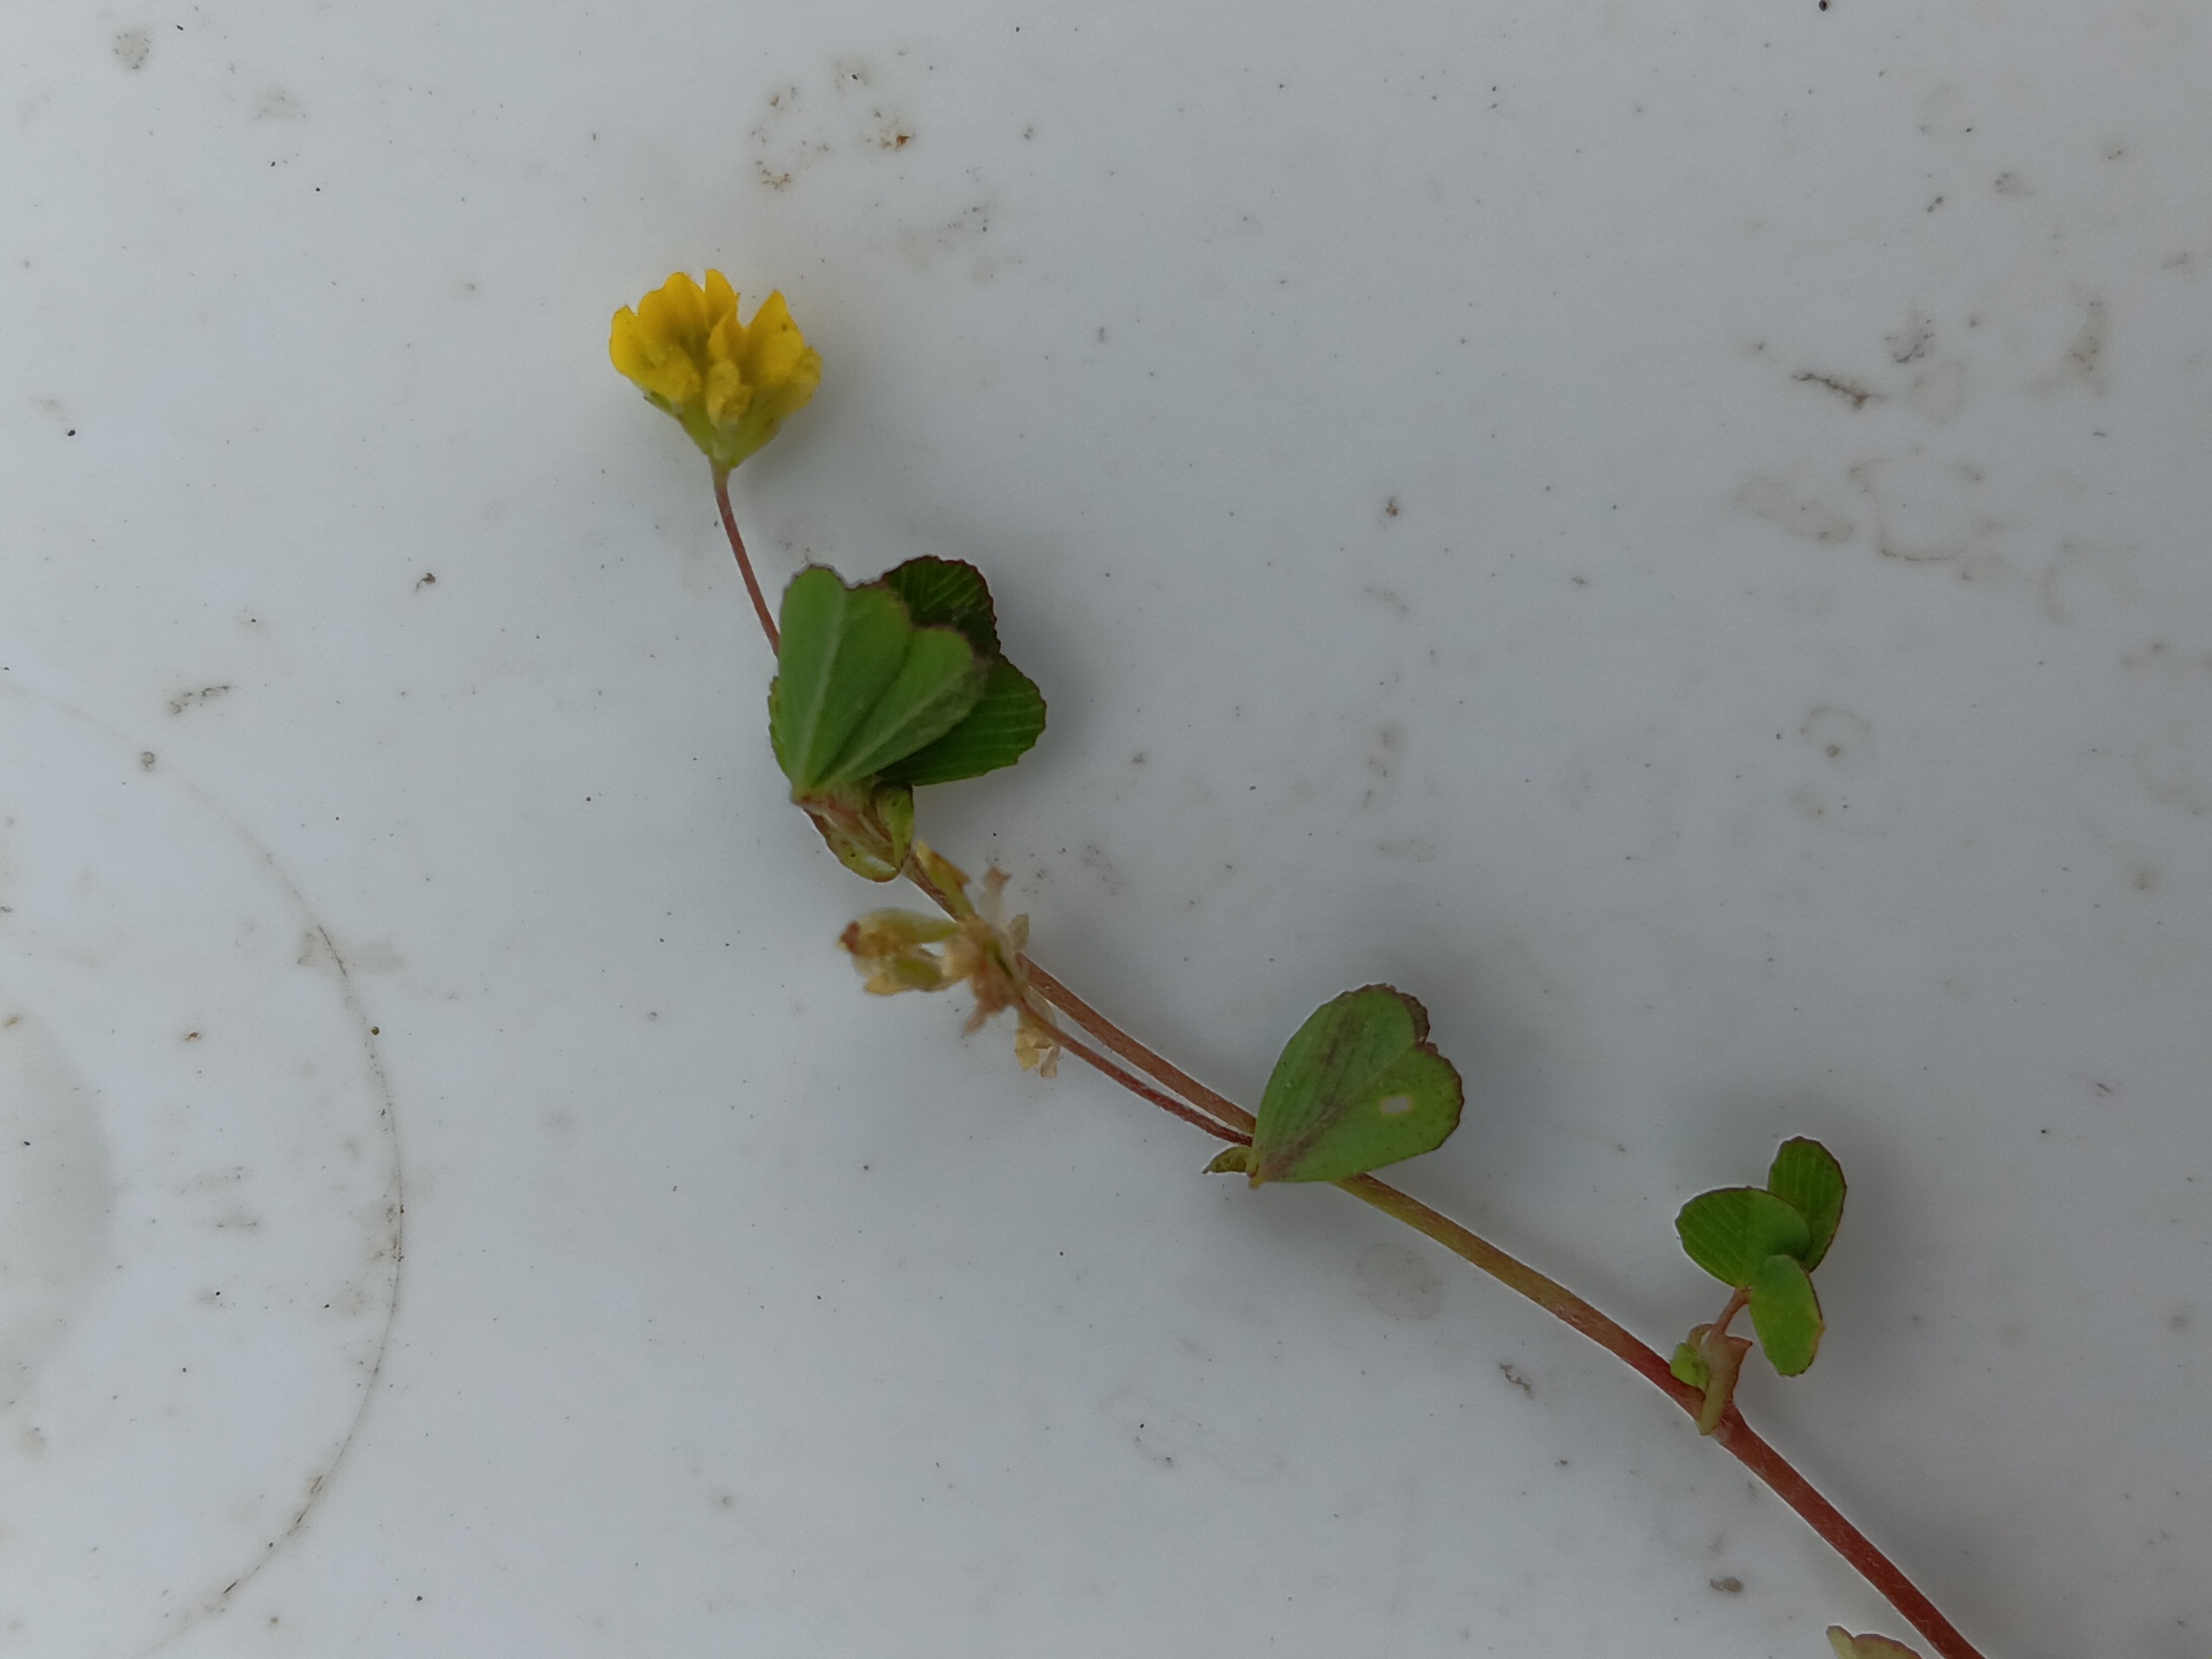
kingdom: Plantae
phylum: Tracheophyta
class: Magnoliopsida
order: Fabales
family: Fabaceae
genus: Trifolium
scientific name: Trifolium dubium
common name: Fin kløver
